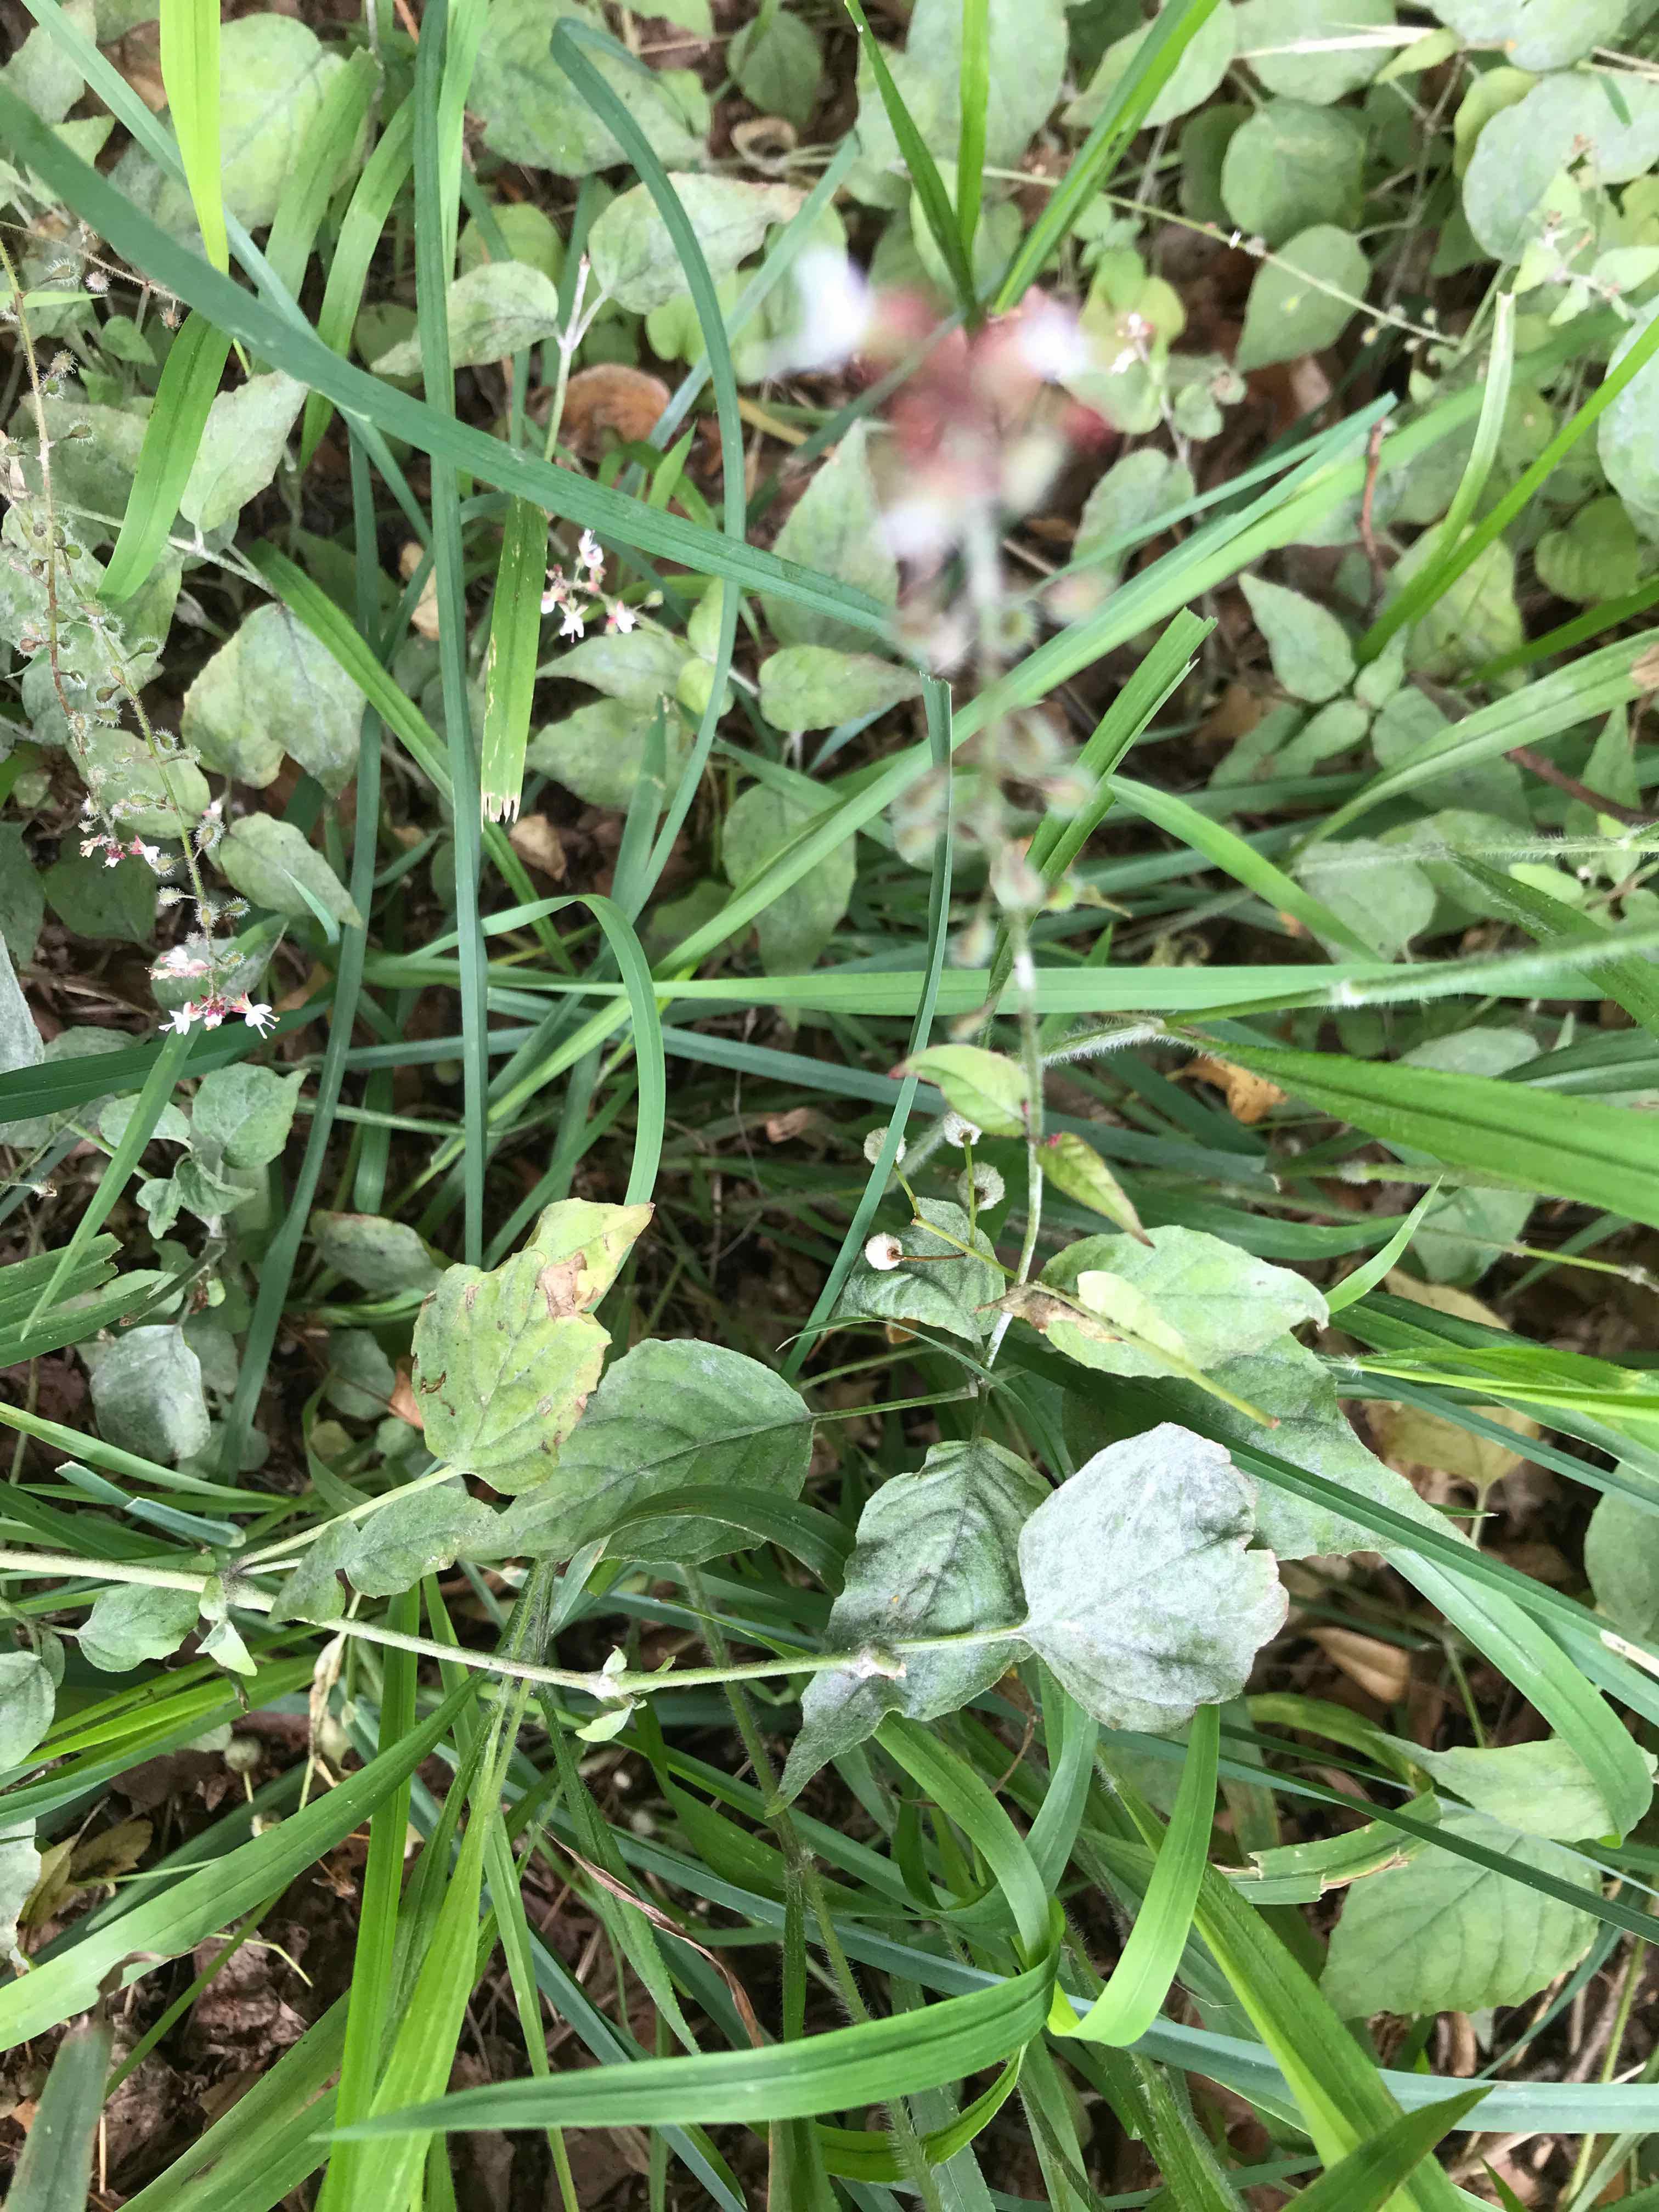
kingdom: Fungi
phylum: Ascomycota
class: Leotiomycetes
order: Helotiales
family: Erysiphaceae
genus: Erysiphe
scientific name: Erysiphe circaeae
